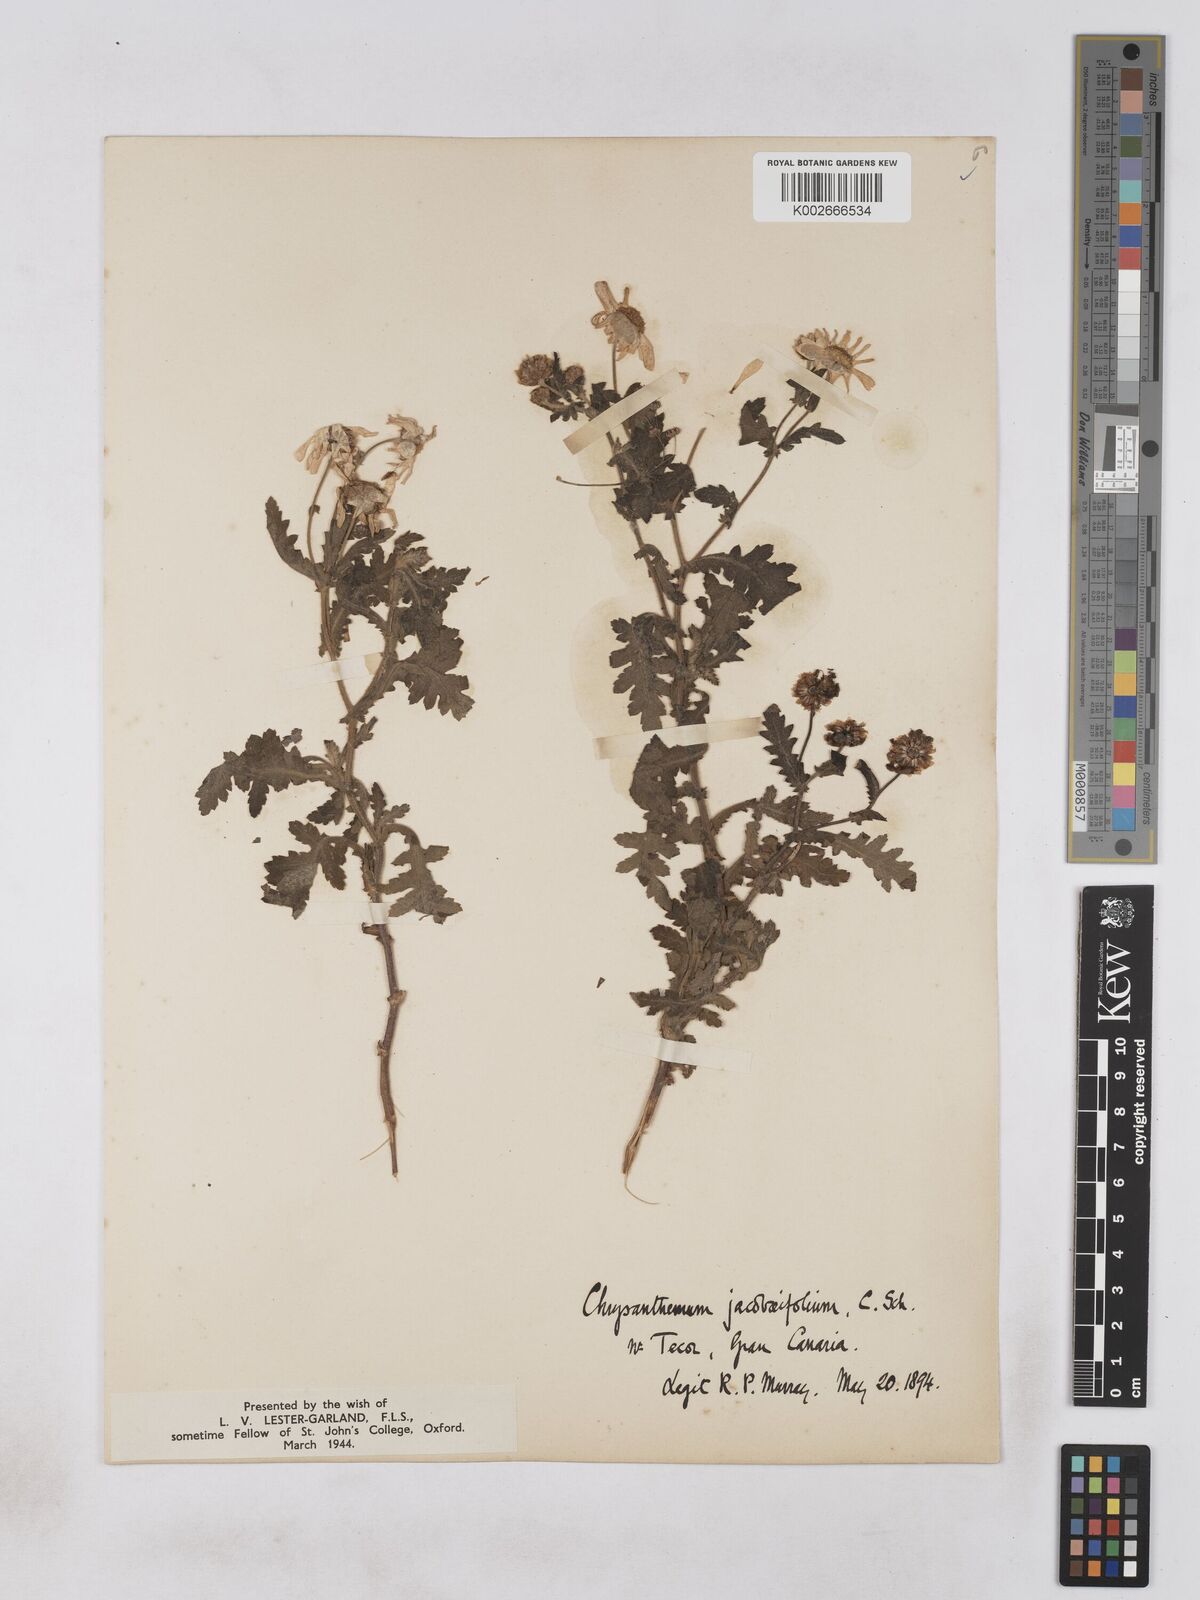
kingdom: Plantae
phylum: Tracheophyta
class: Magnoliopsida
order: Asterales
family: Asteraceae
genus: Argyranthemum
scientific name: Argyranthemum adauctum
